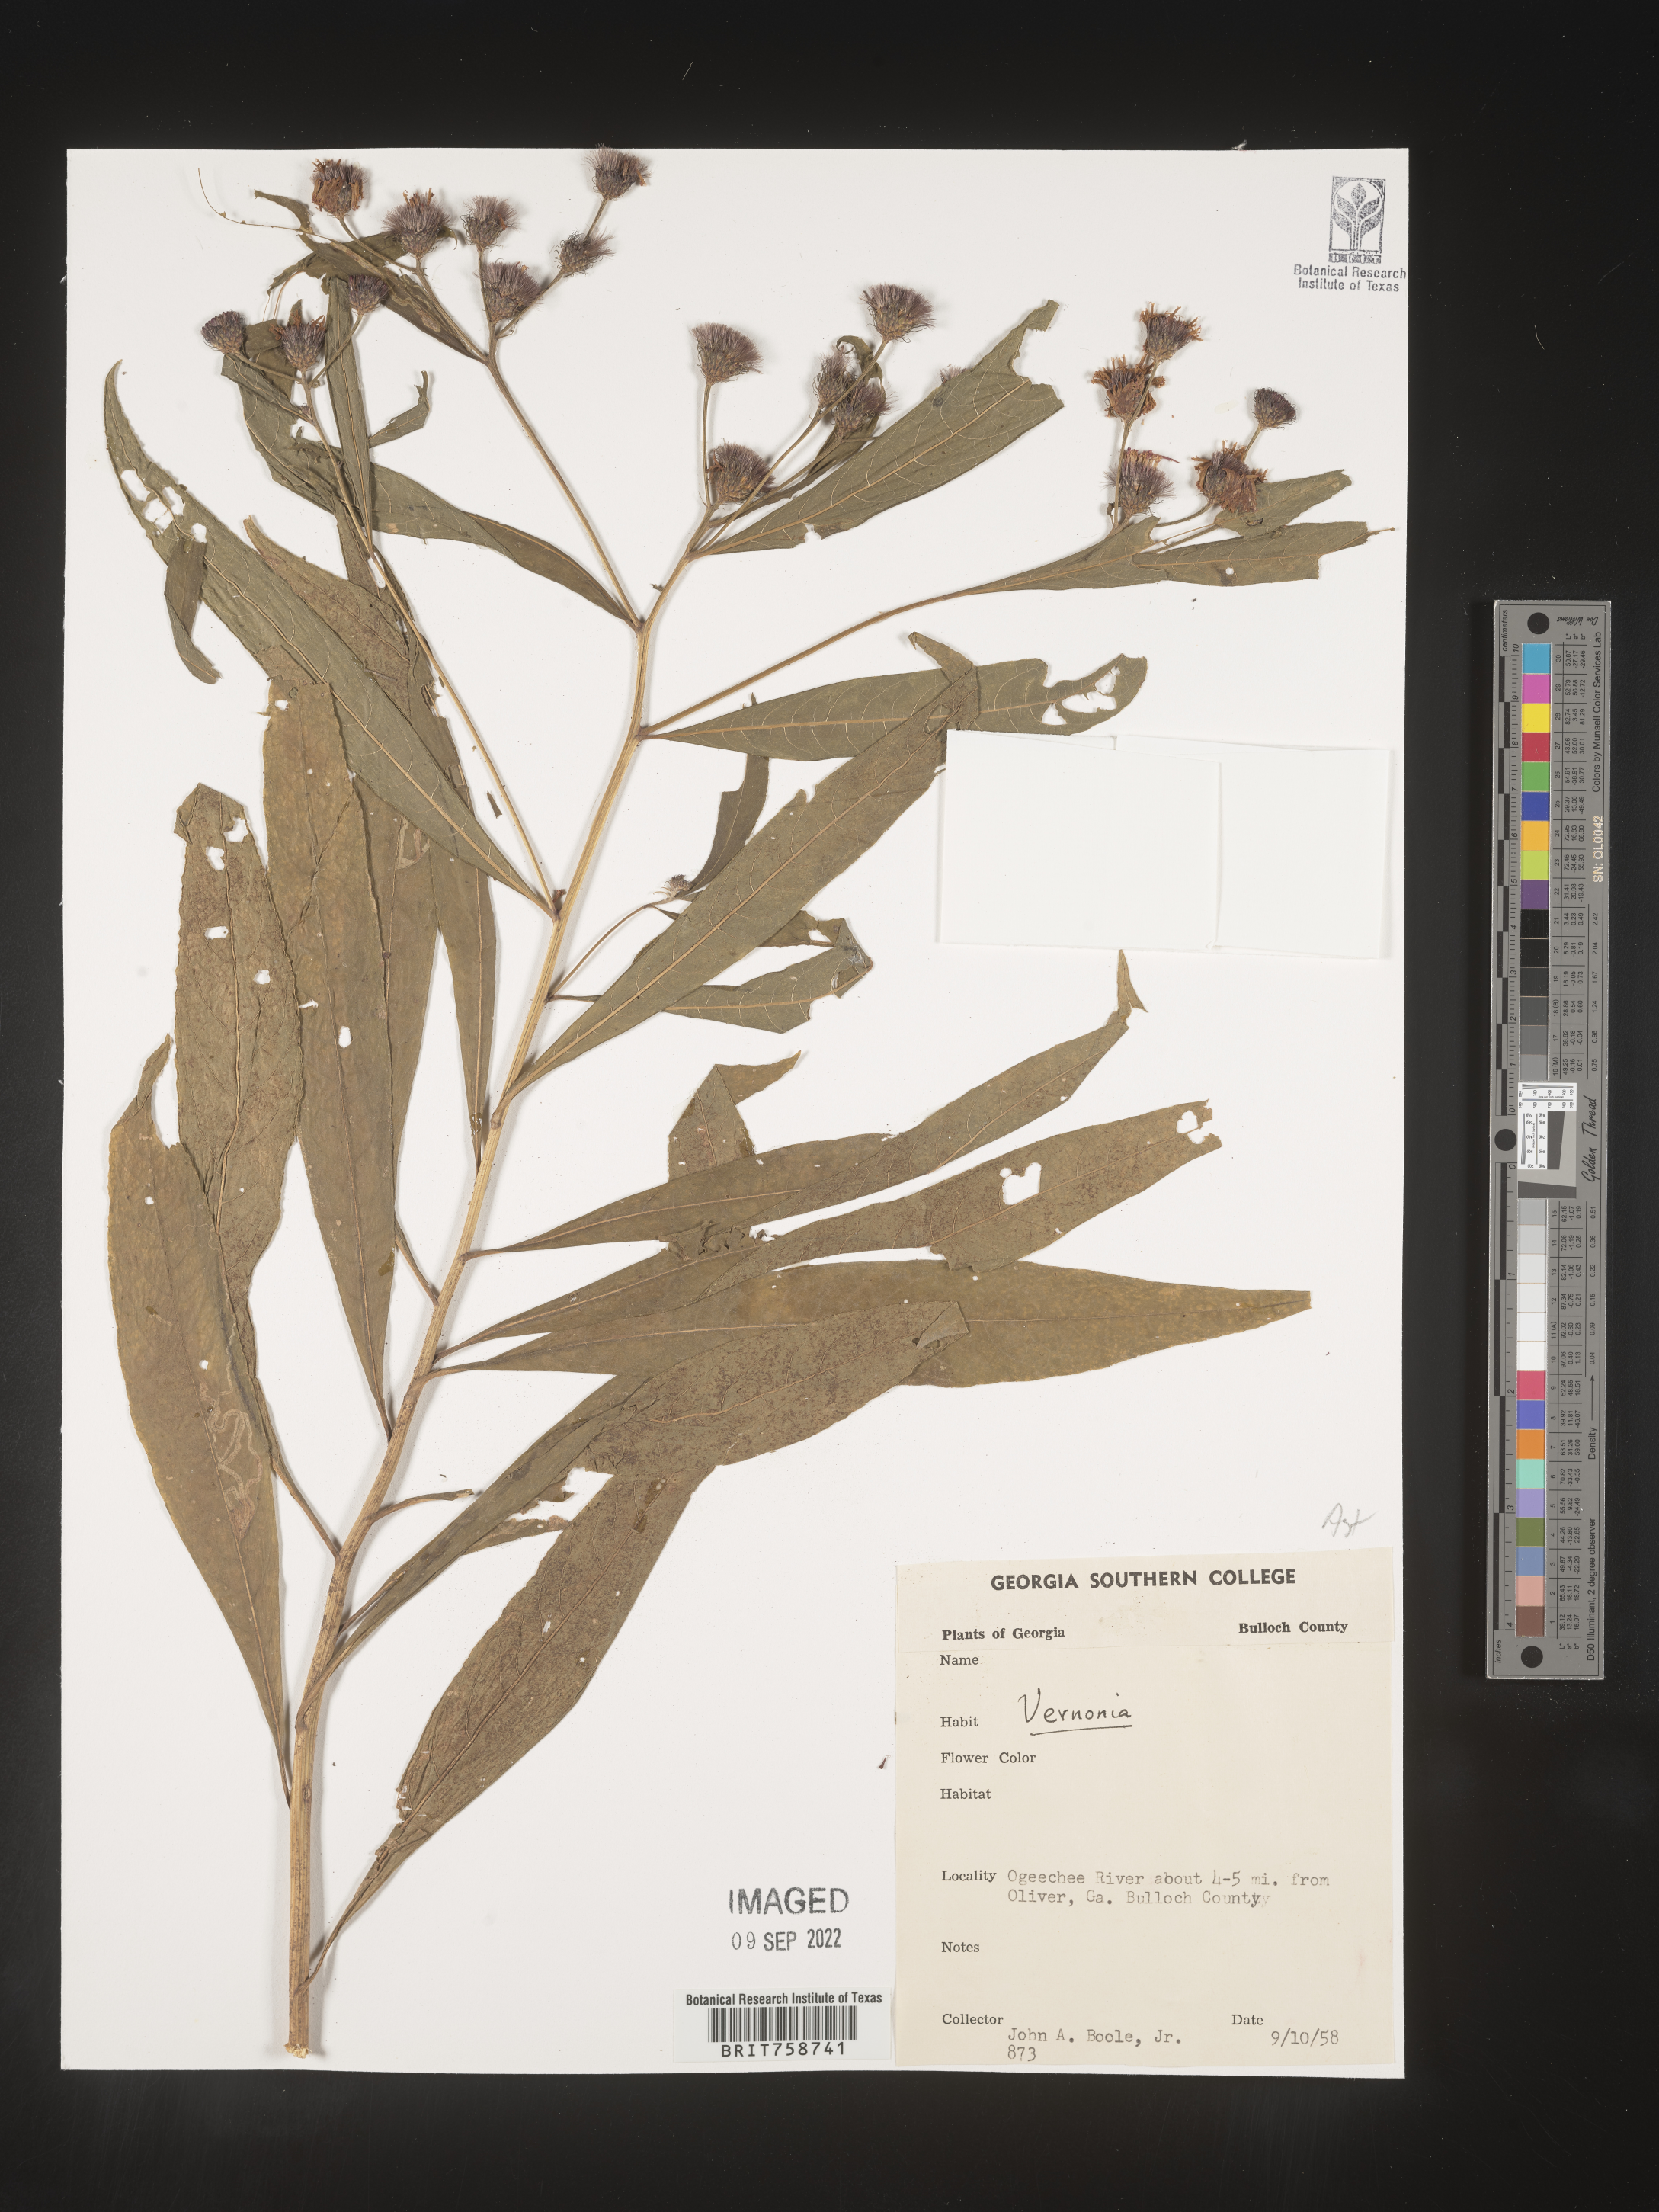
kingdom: Plantae
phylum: Tracheophyta
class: Magnoliopsida
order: Asterales
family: Asteraceae
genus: Vernonia
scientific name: Vernonia
